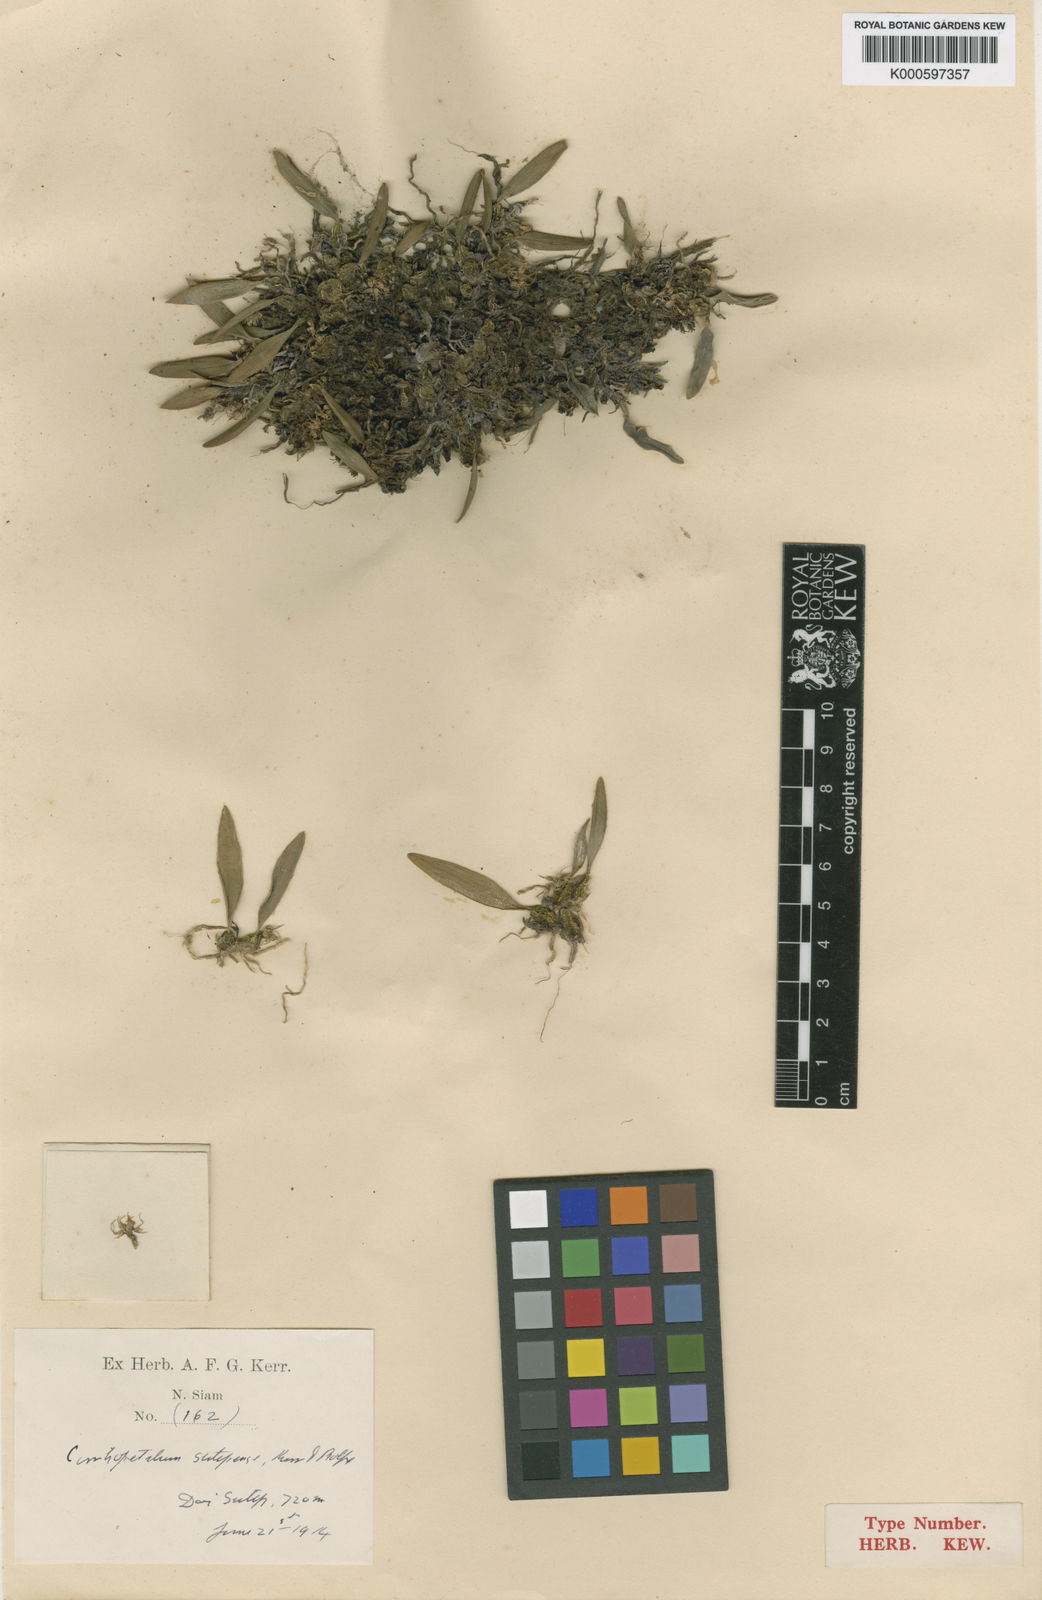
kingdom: Plantae
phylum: Tracheophyta
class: Liliopsida
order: Asparagales
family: Orchidaceae
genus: Bulbophyllum
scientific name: Bulbophyllum sutepense
